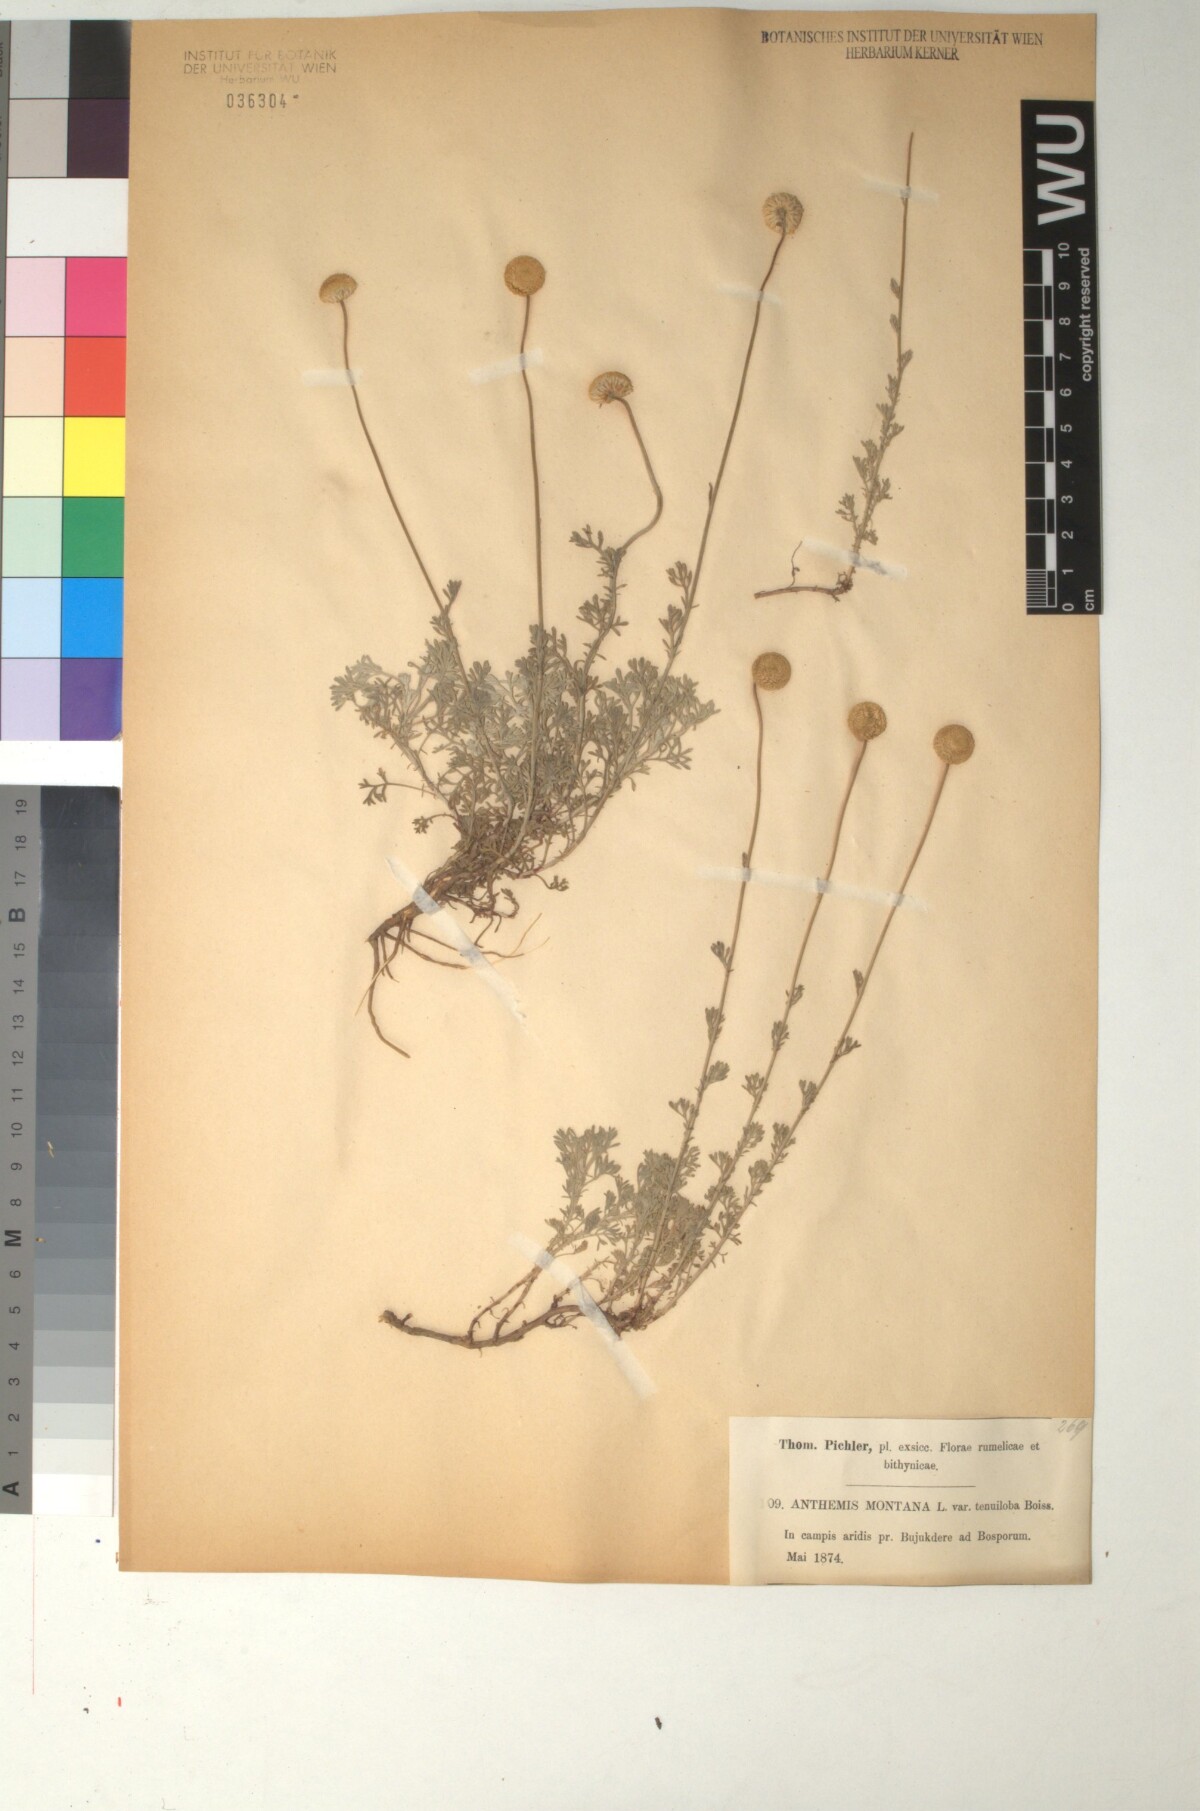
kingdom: Plantae
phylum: Tracheophyta
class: Magnoliopsida
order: Asterales
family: Asteraceae
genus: Anthemis
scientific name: Anthemis cretica
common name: Mountain dog-daisy
